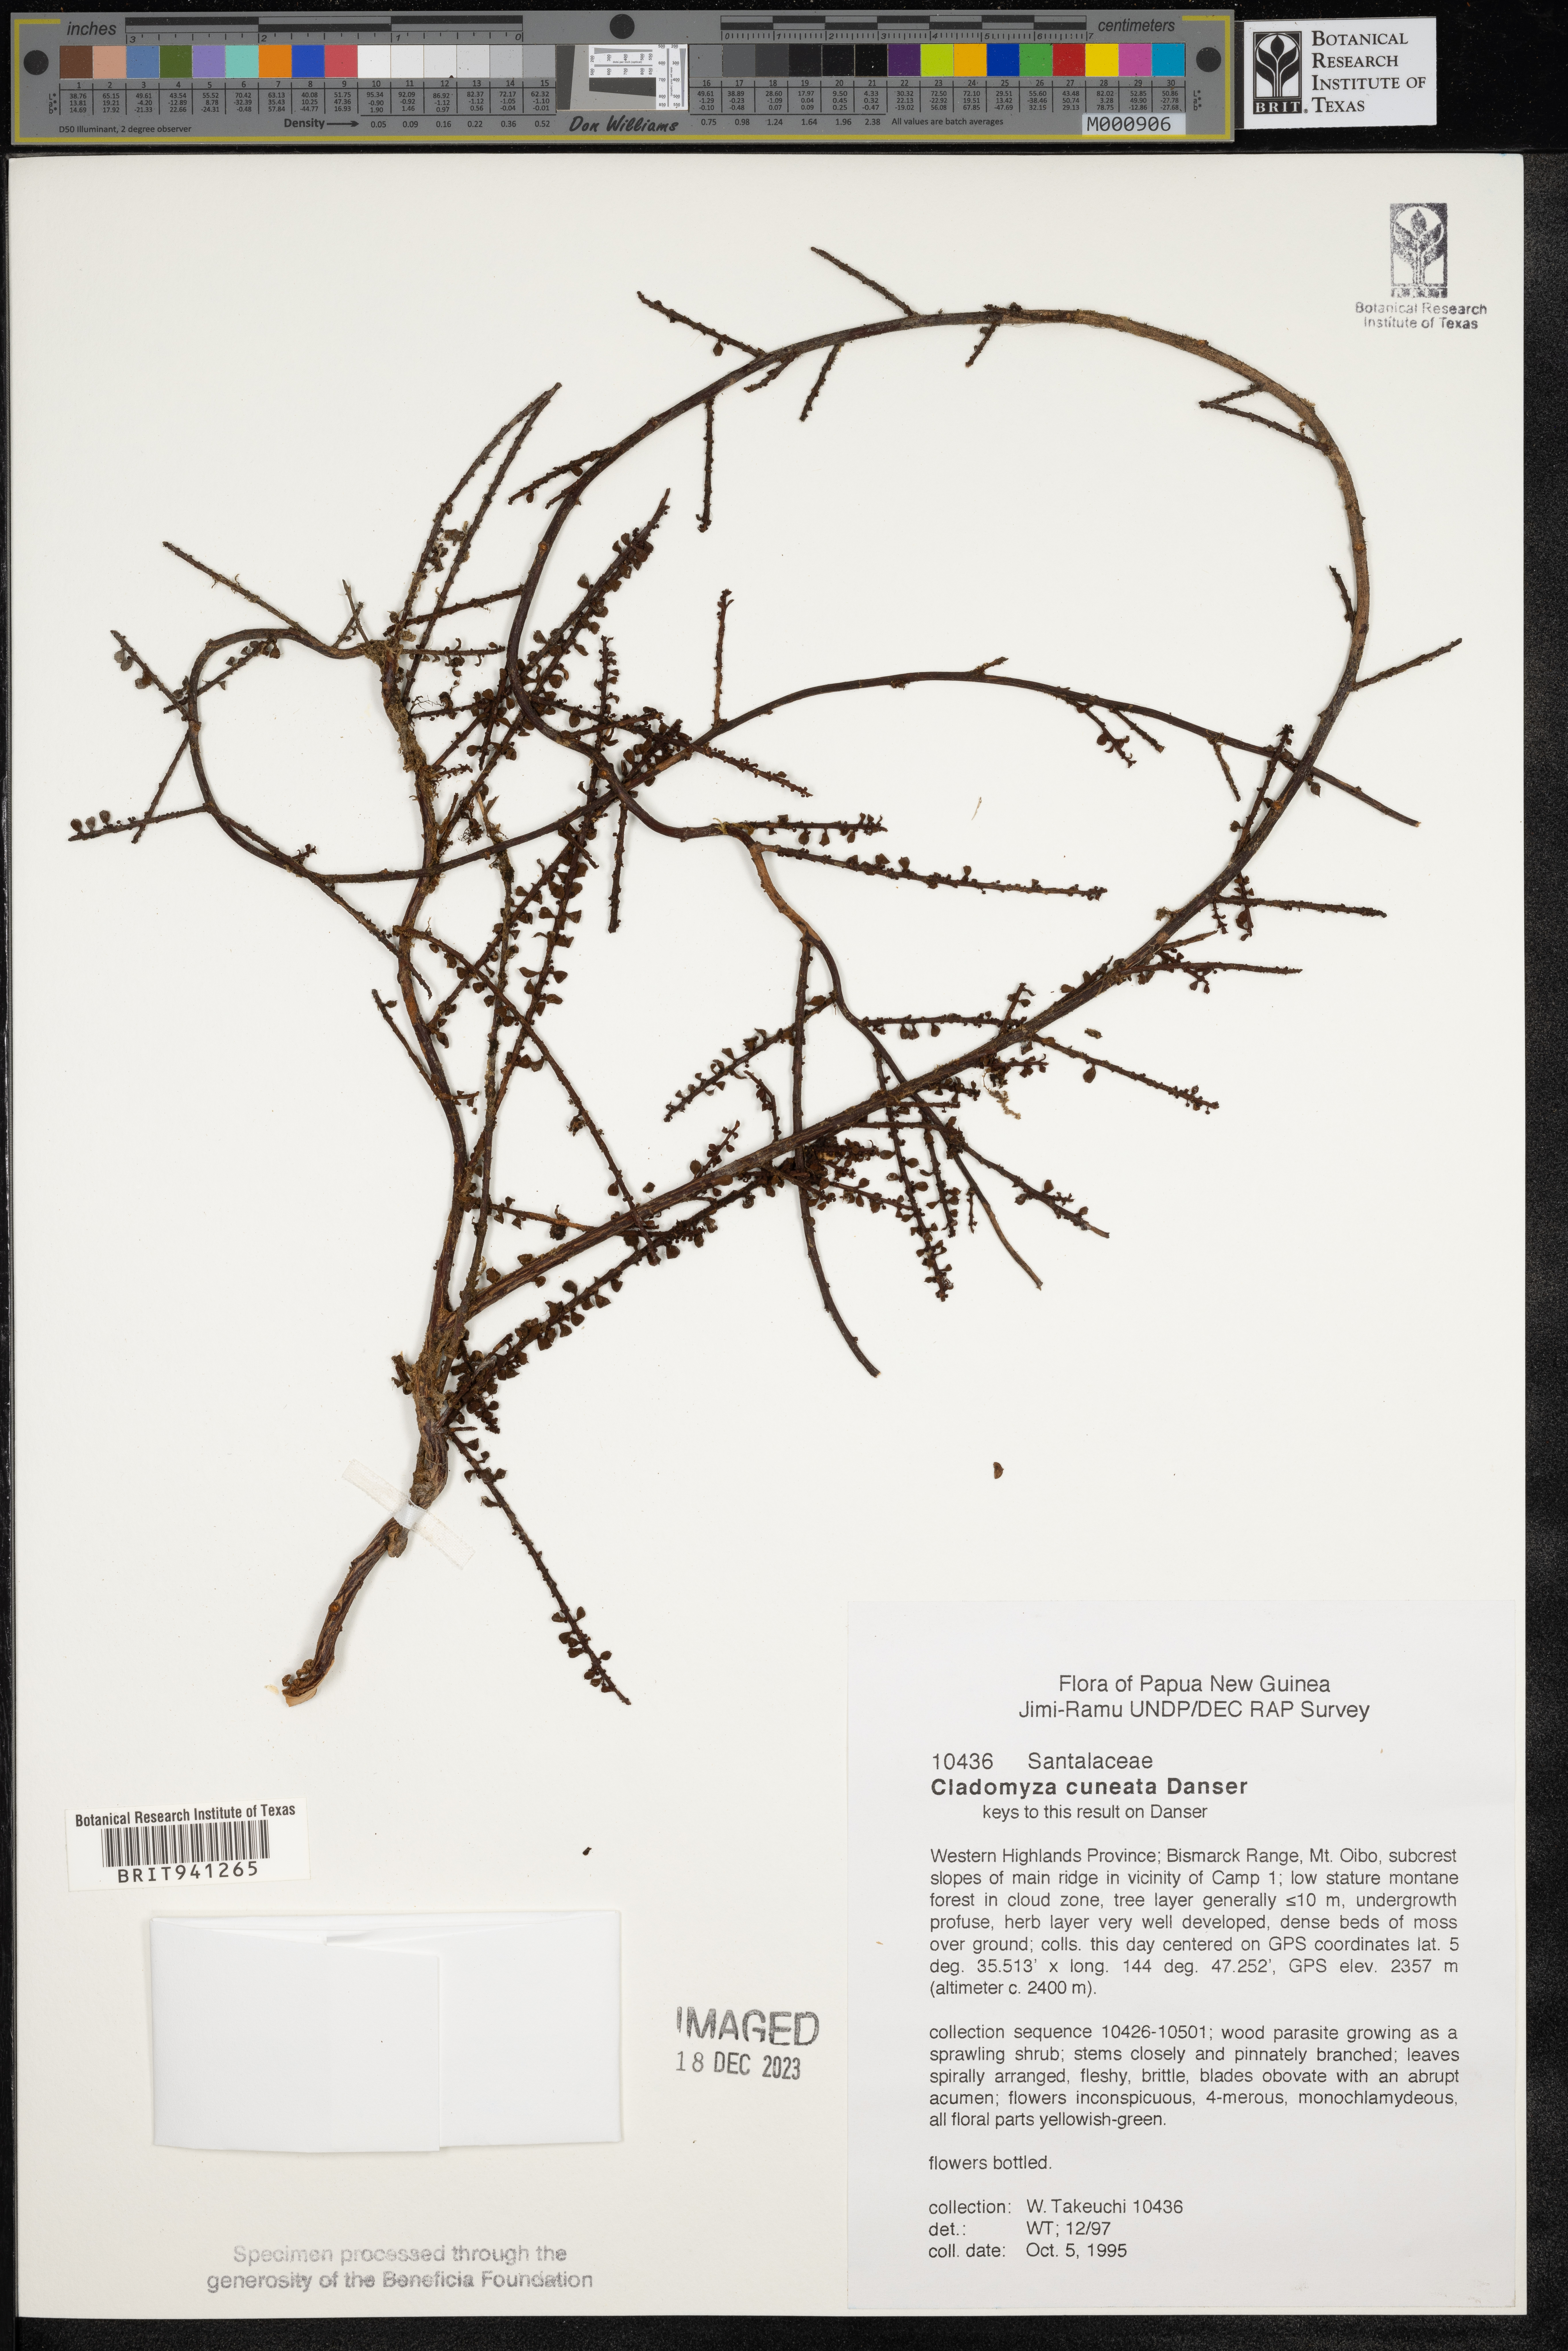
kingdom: Plantae
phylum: Tracheophyta
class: Magnoliopsida
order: Santalales
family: Amphorogynaceae
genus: Cladomyza
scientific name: Cladomyza
